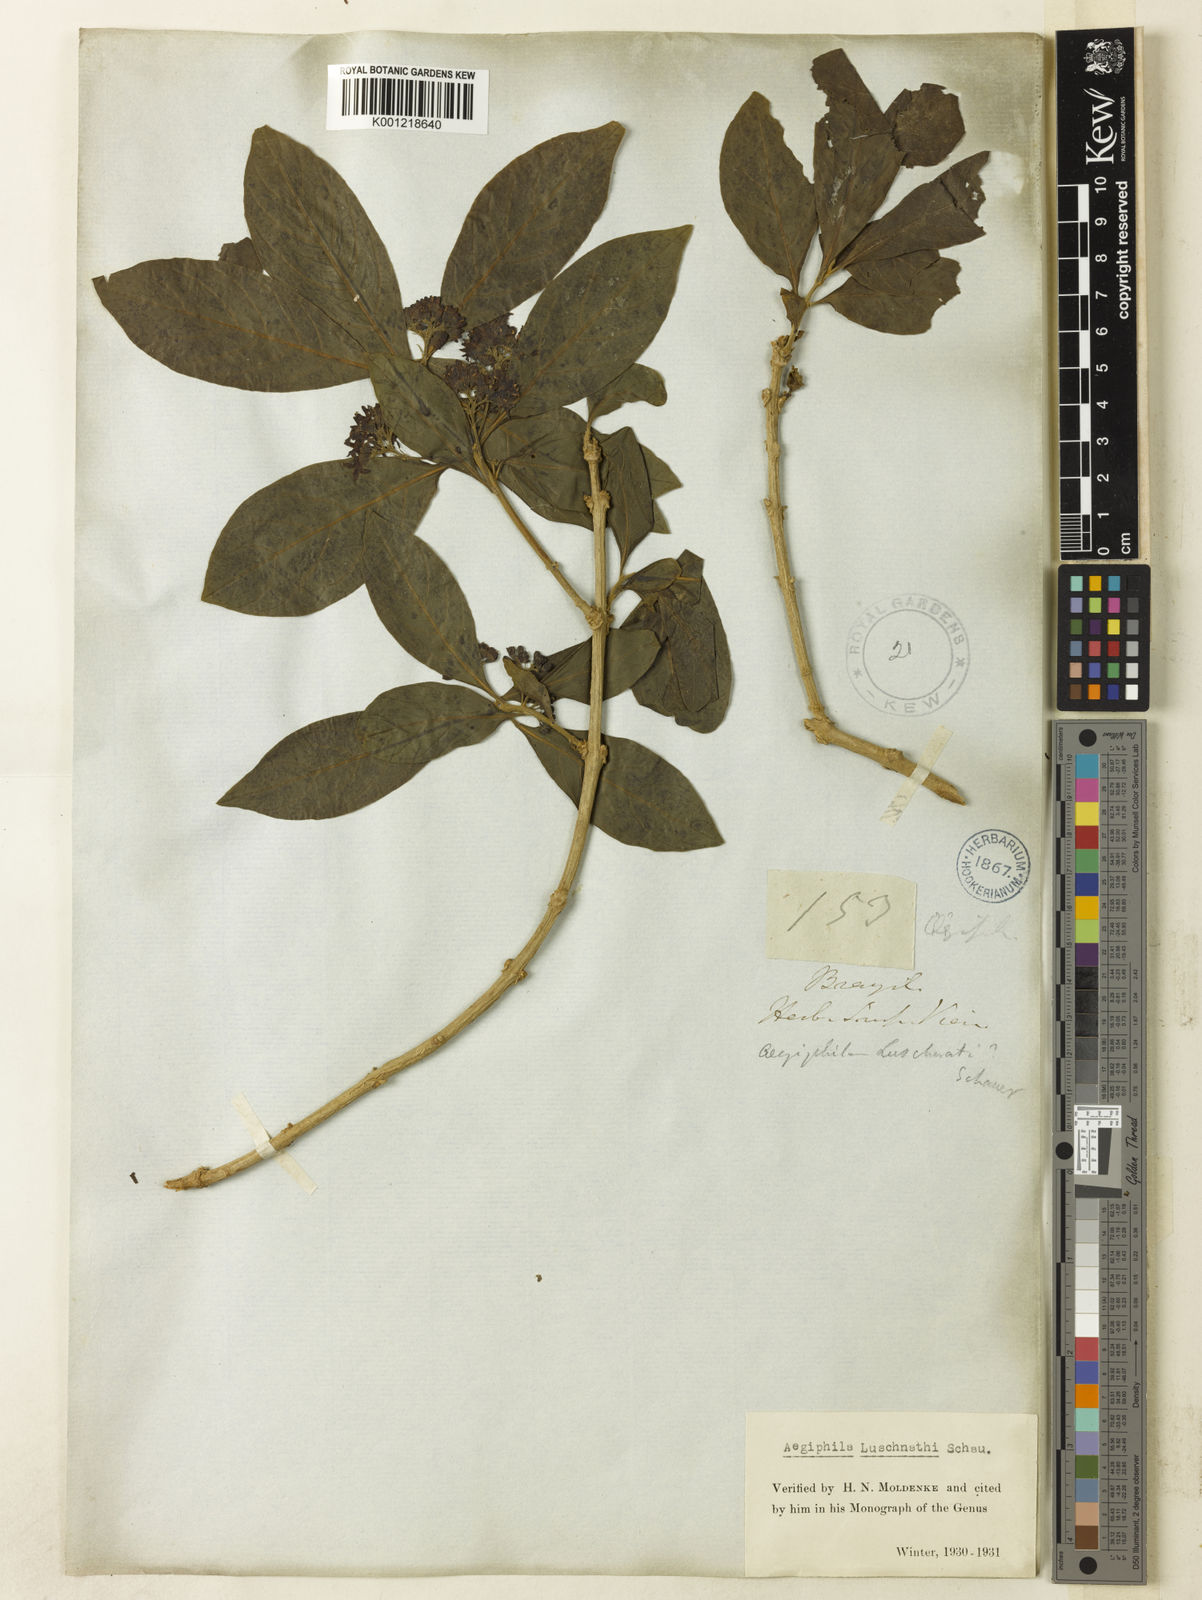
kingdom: Plantae
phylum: Tracheophyta
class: Magnoliopsida
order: Lamiales
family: Lamiaceae
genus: Aegiphila
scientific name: Aegiphila luschnathii
